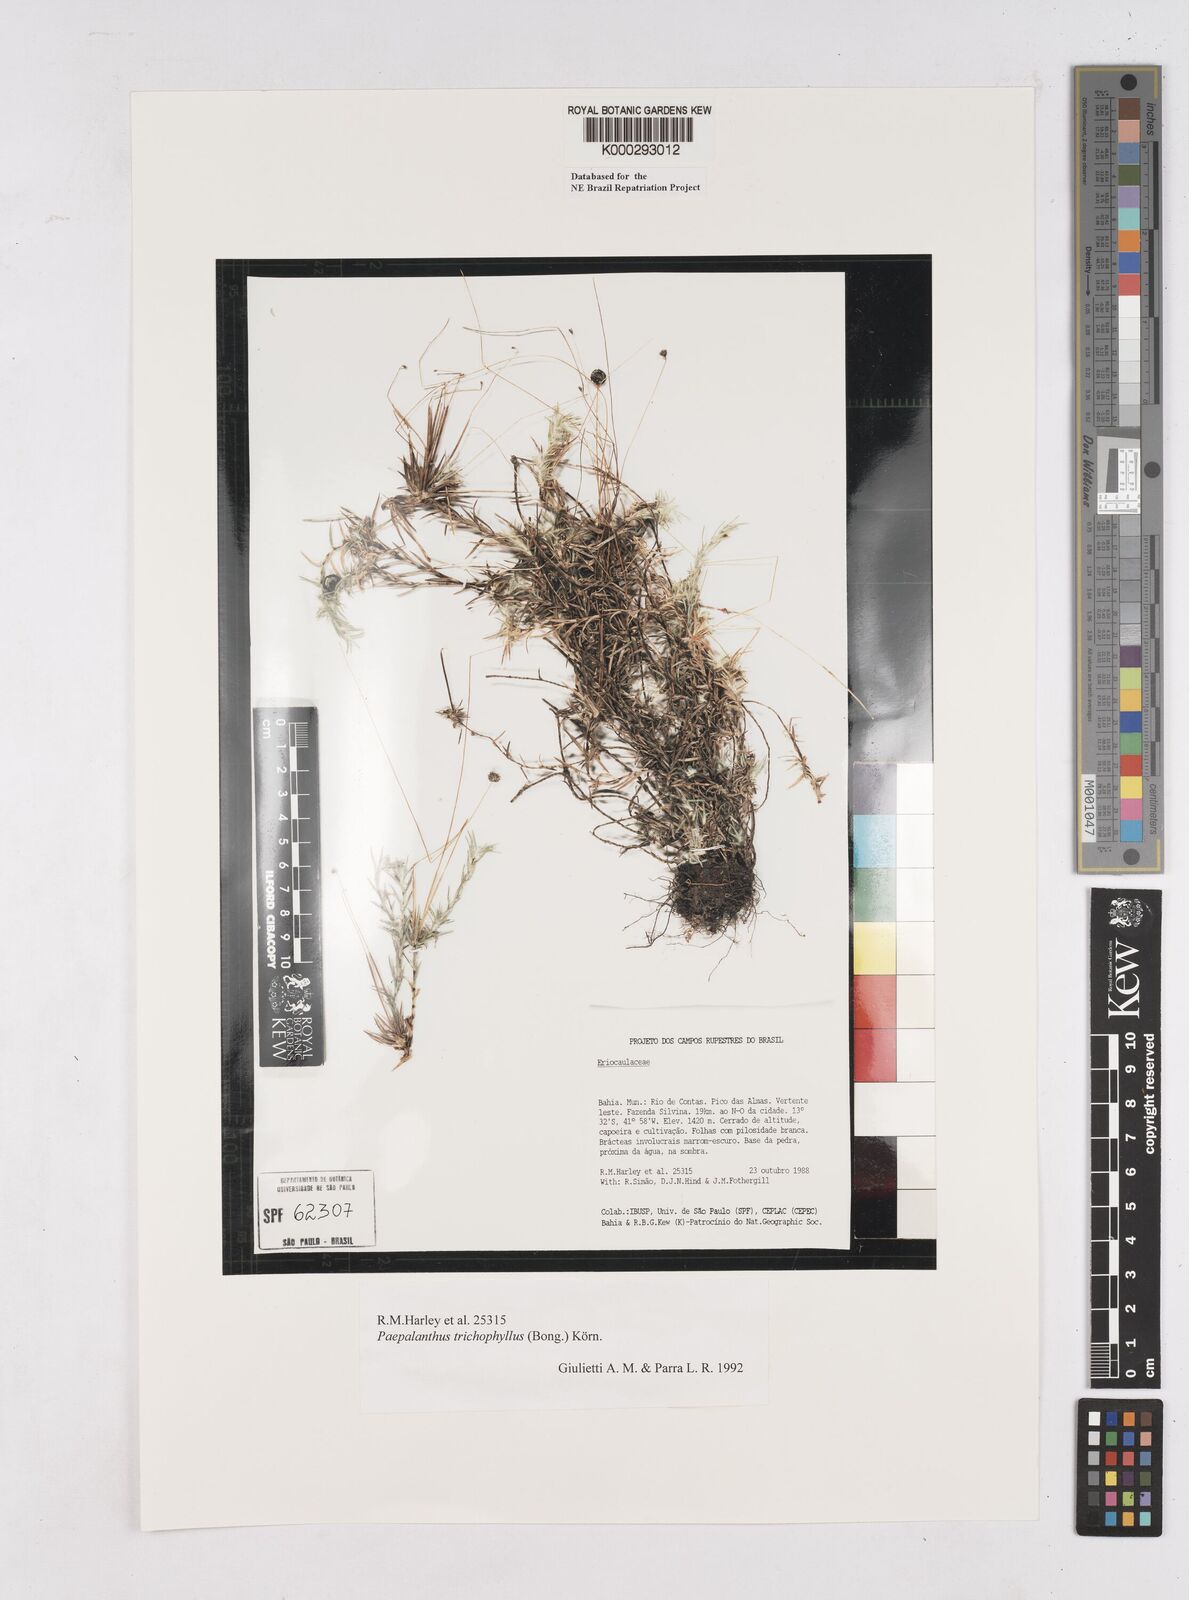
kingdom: Plantae
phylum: Tracheophyta
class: Liliopsida
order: Poales
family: Eriocaulaceae
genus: Paepalanthus
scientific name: Paepalanthus
